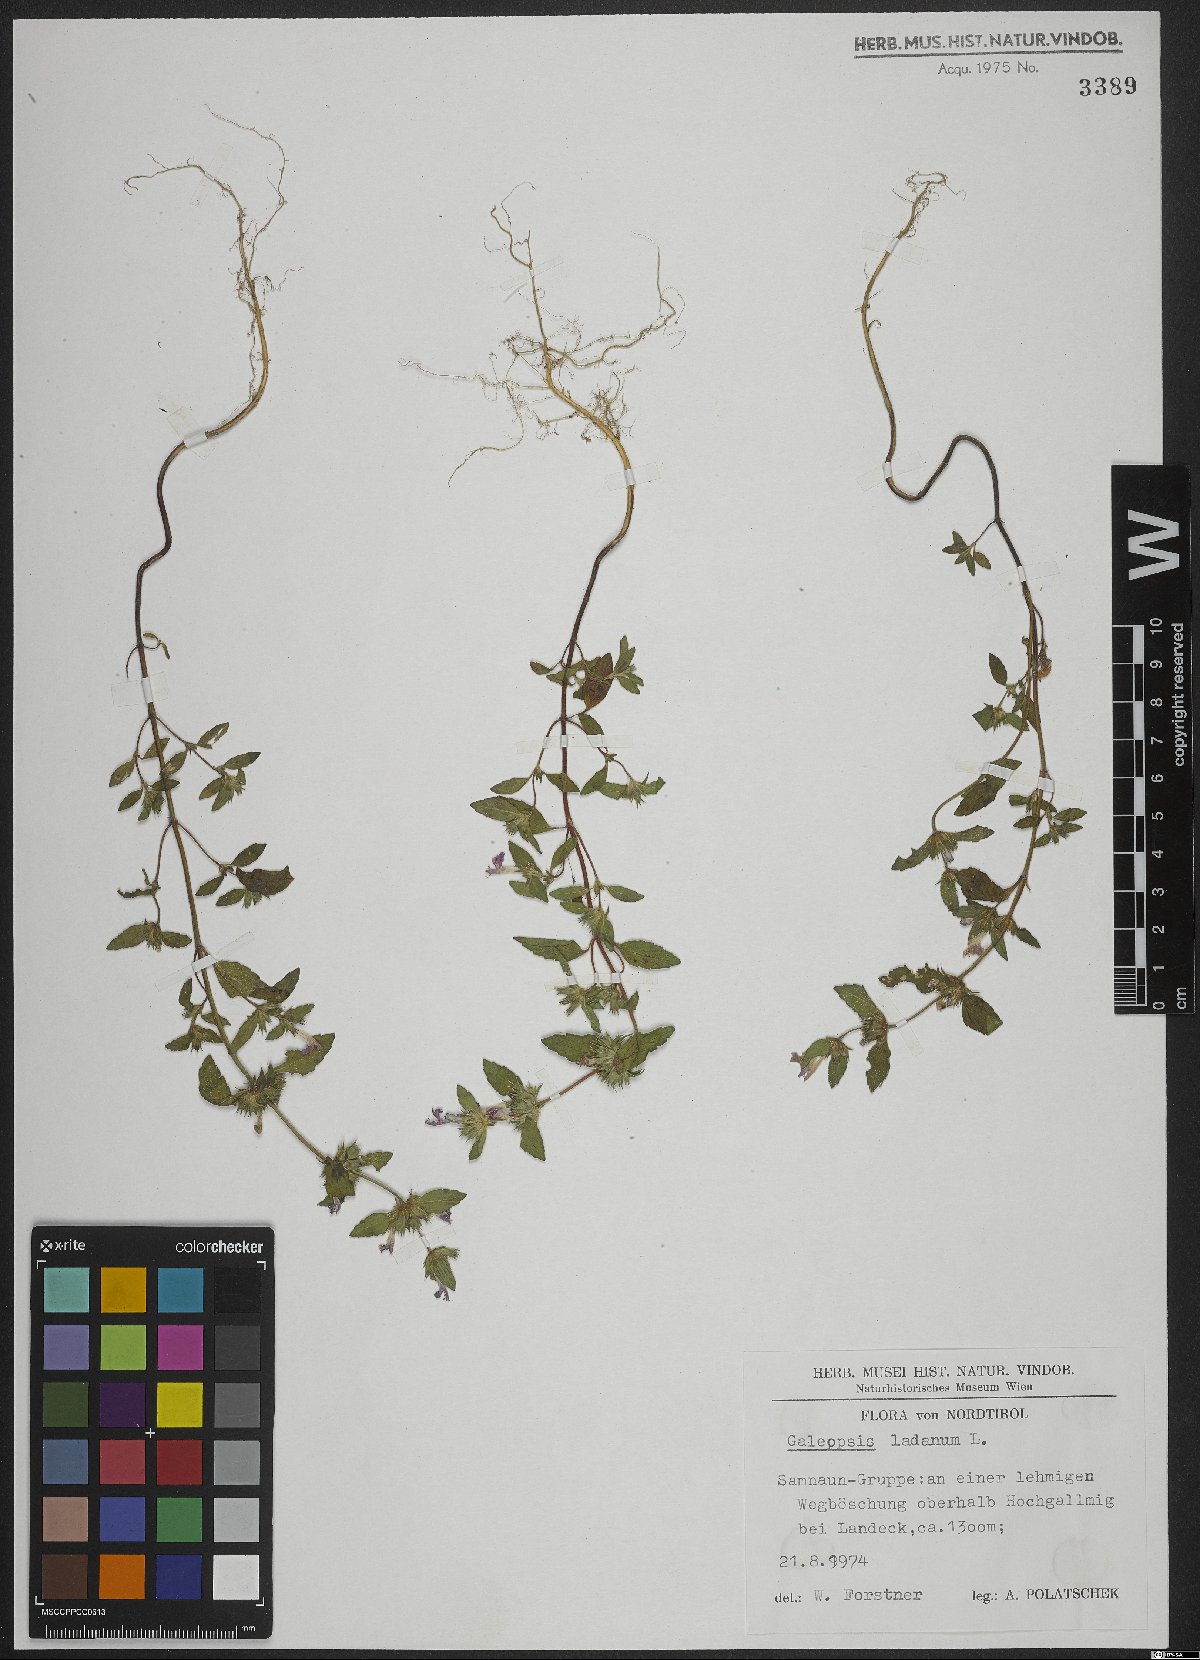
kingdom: Plantae
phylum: Tracheophyta
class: Magnoliopsida
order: Lamiales
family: Lamiaceae
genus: Galeopsis
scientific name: Galeopsis ladanum
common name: Broad-leaved hemp-nettle
